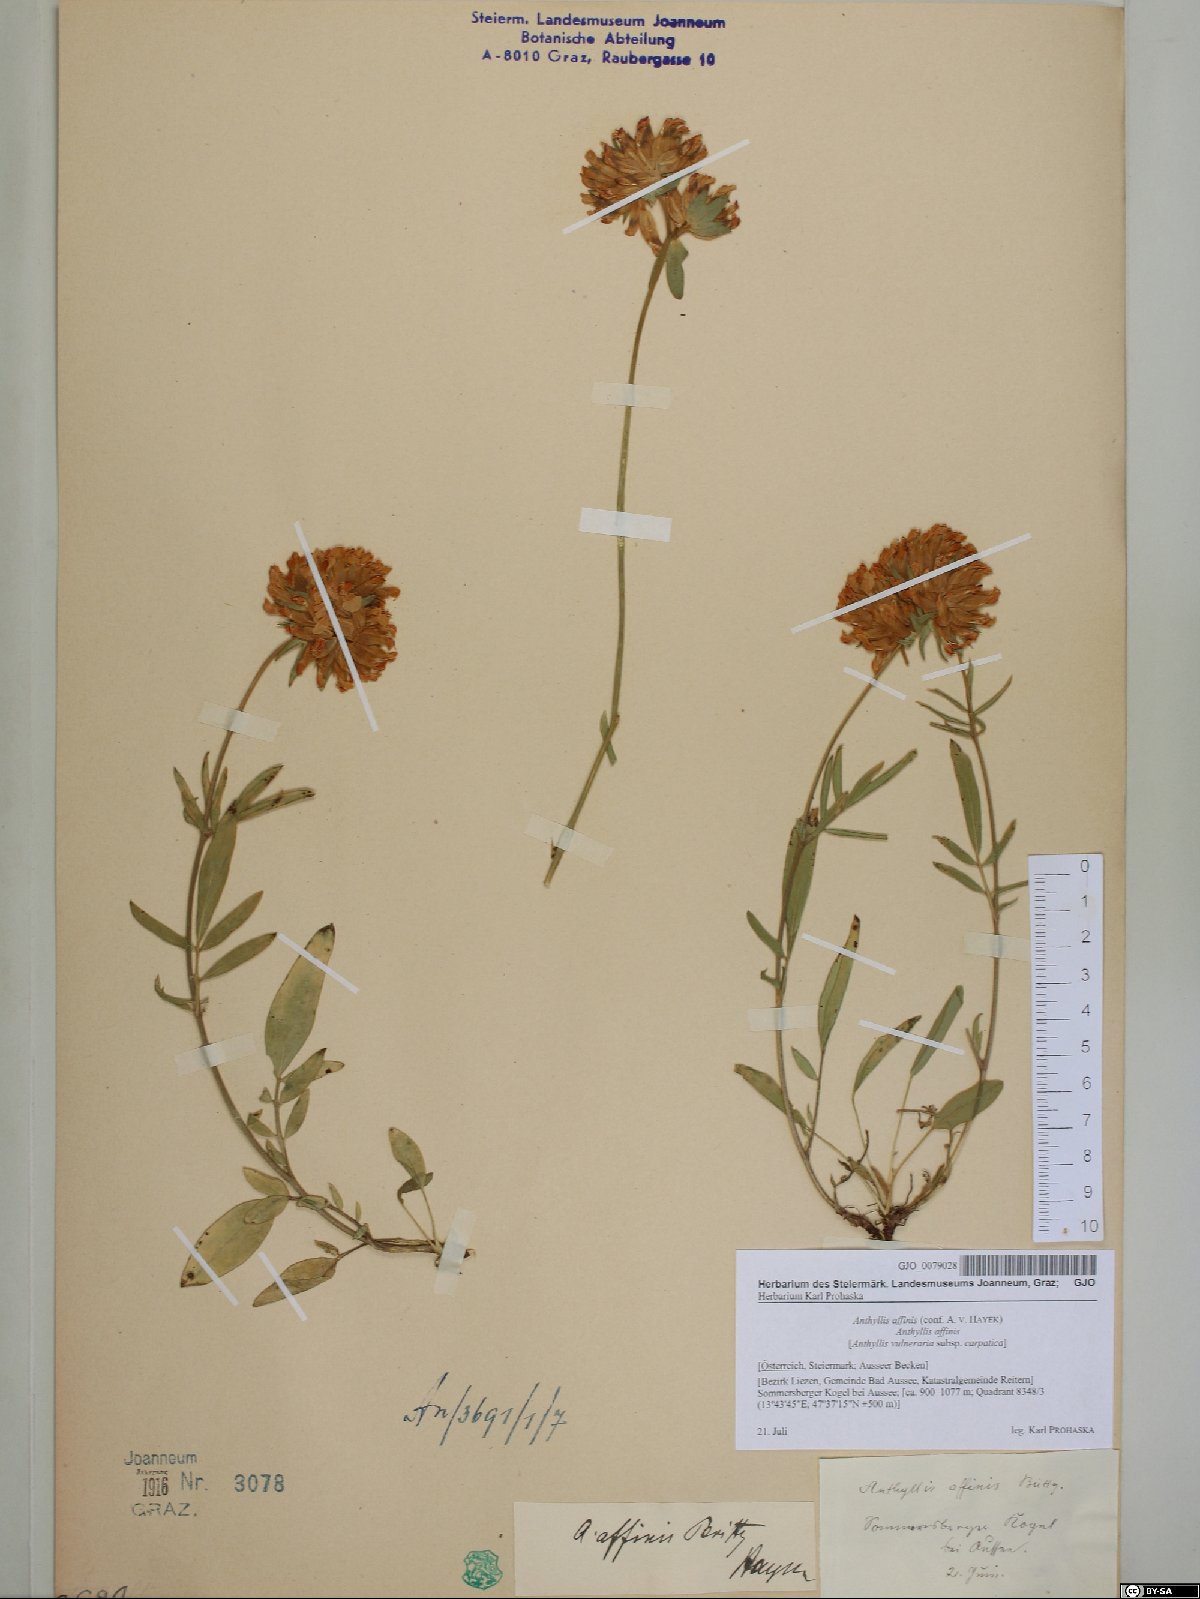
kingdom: Plantae
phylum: Tracheophyta
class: Magnoliopsida
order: Fabales
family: Fabaceae
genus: Anthyllis
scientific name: Anthyllis vulneraria
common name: Kidney vetch
